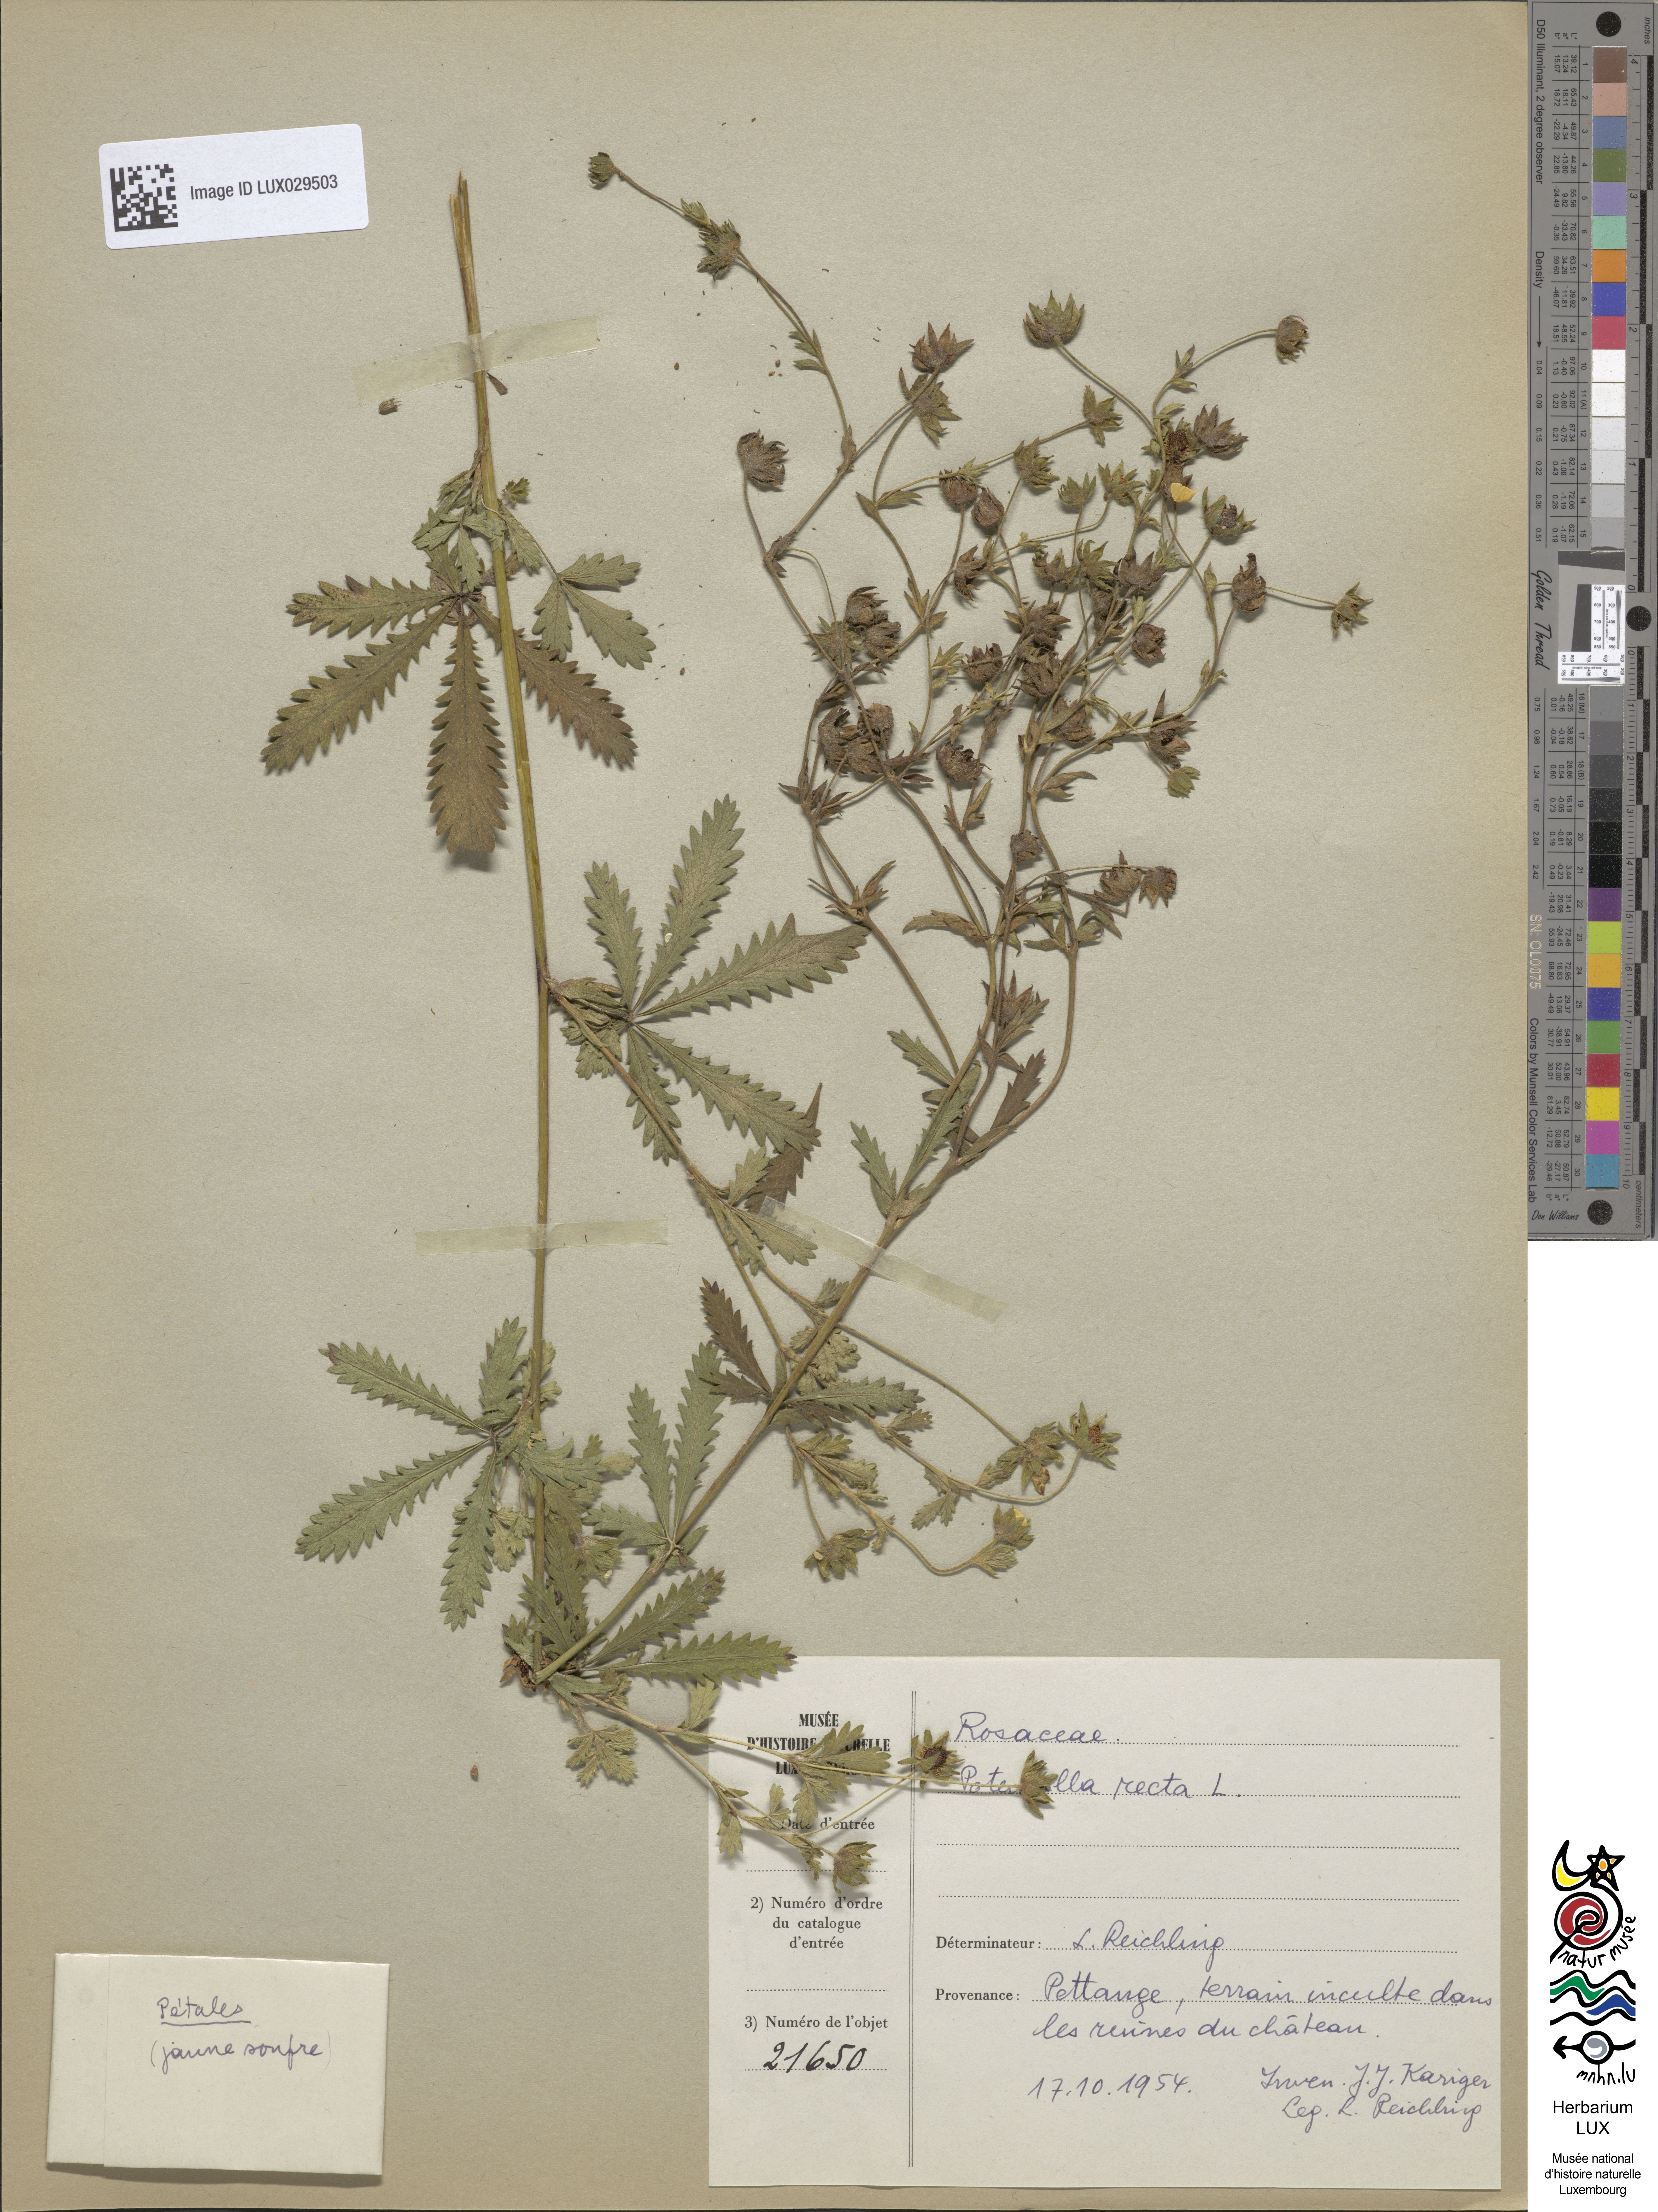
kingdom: Plantae
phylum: Tracheophyta
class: Magnoliopsida
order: Rosales
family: Rosaceae
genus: Potentilla
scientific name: Potentilla recta
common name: Sulphur cinquefoil
